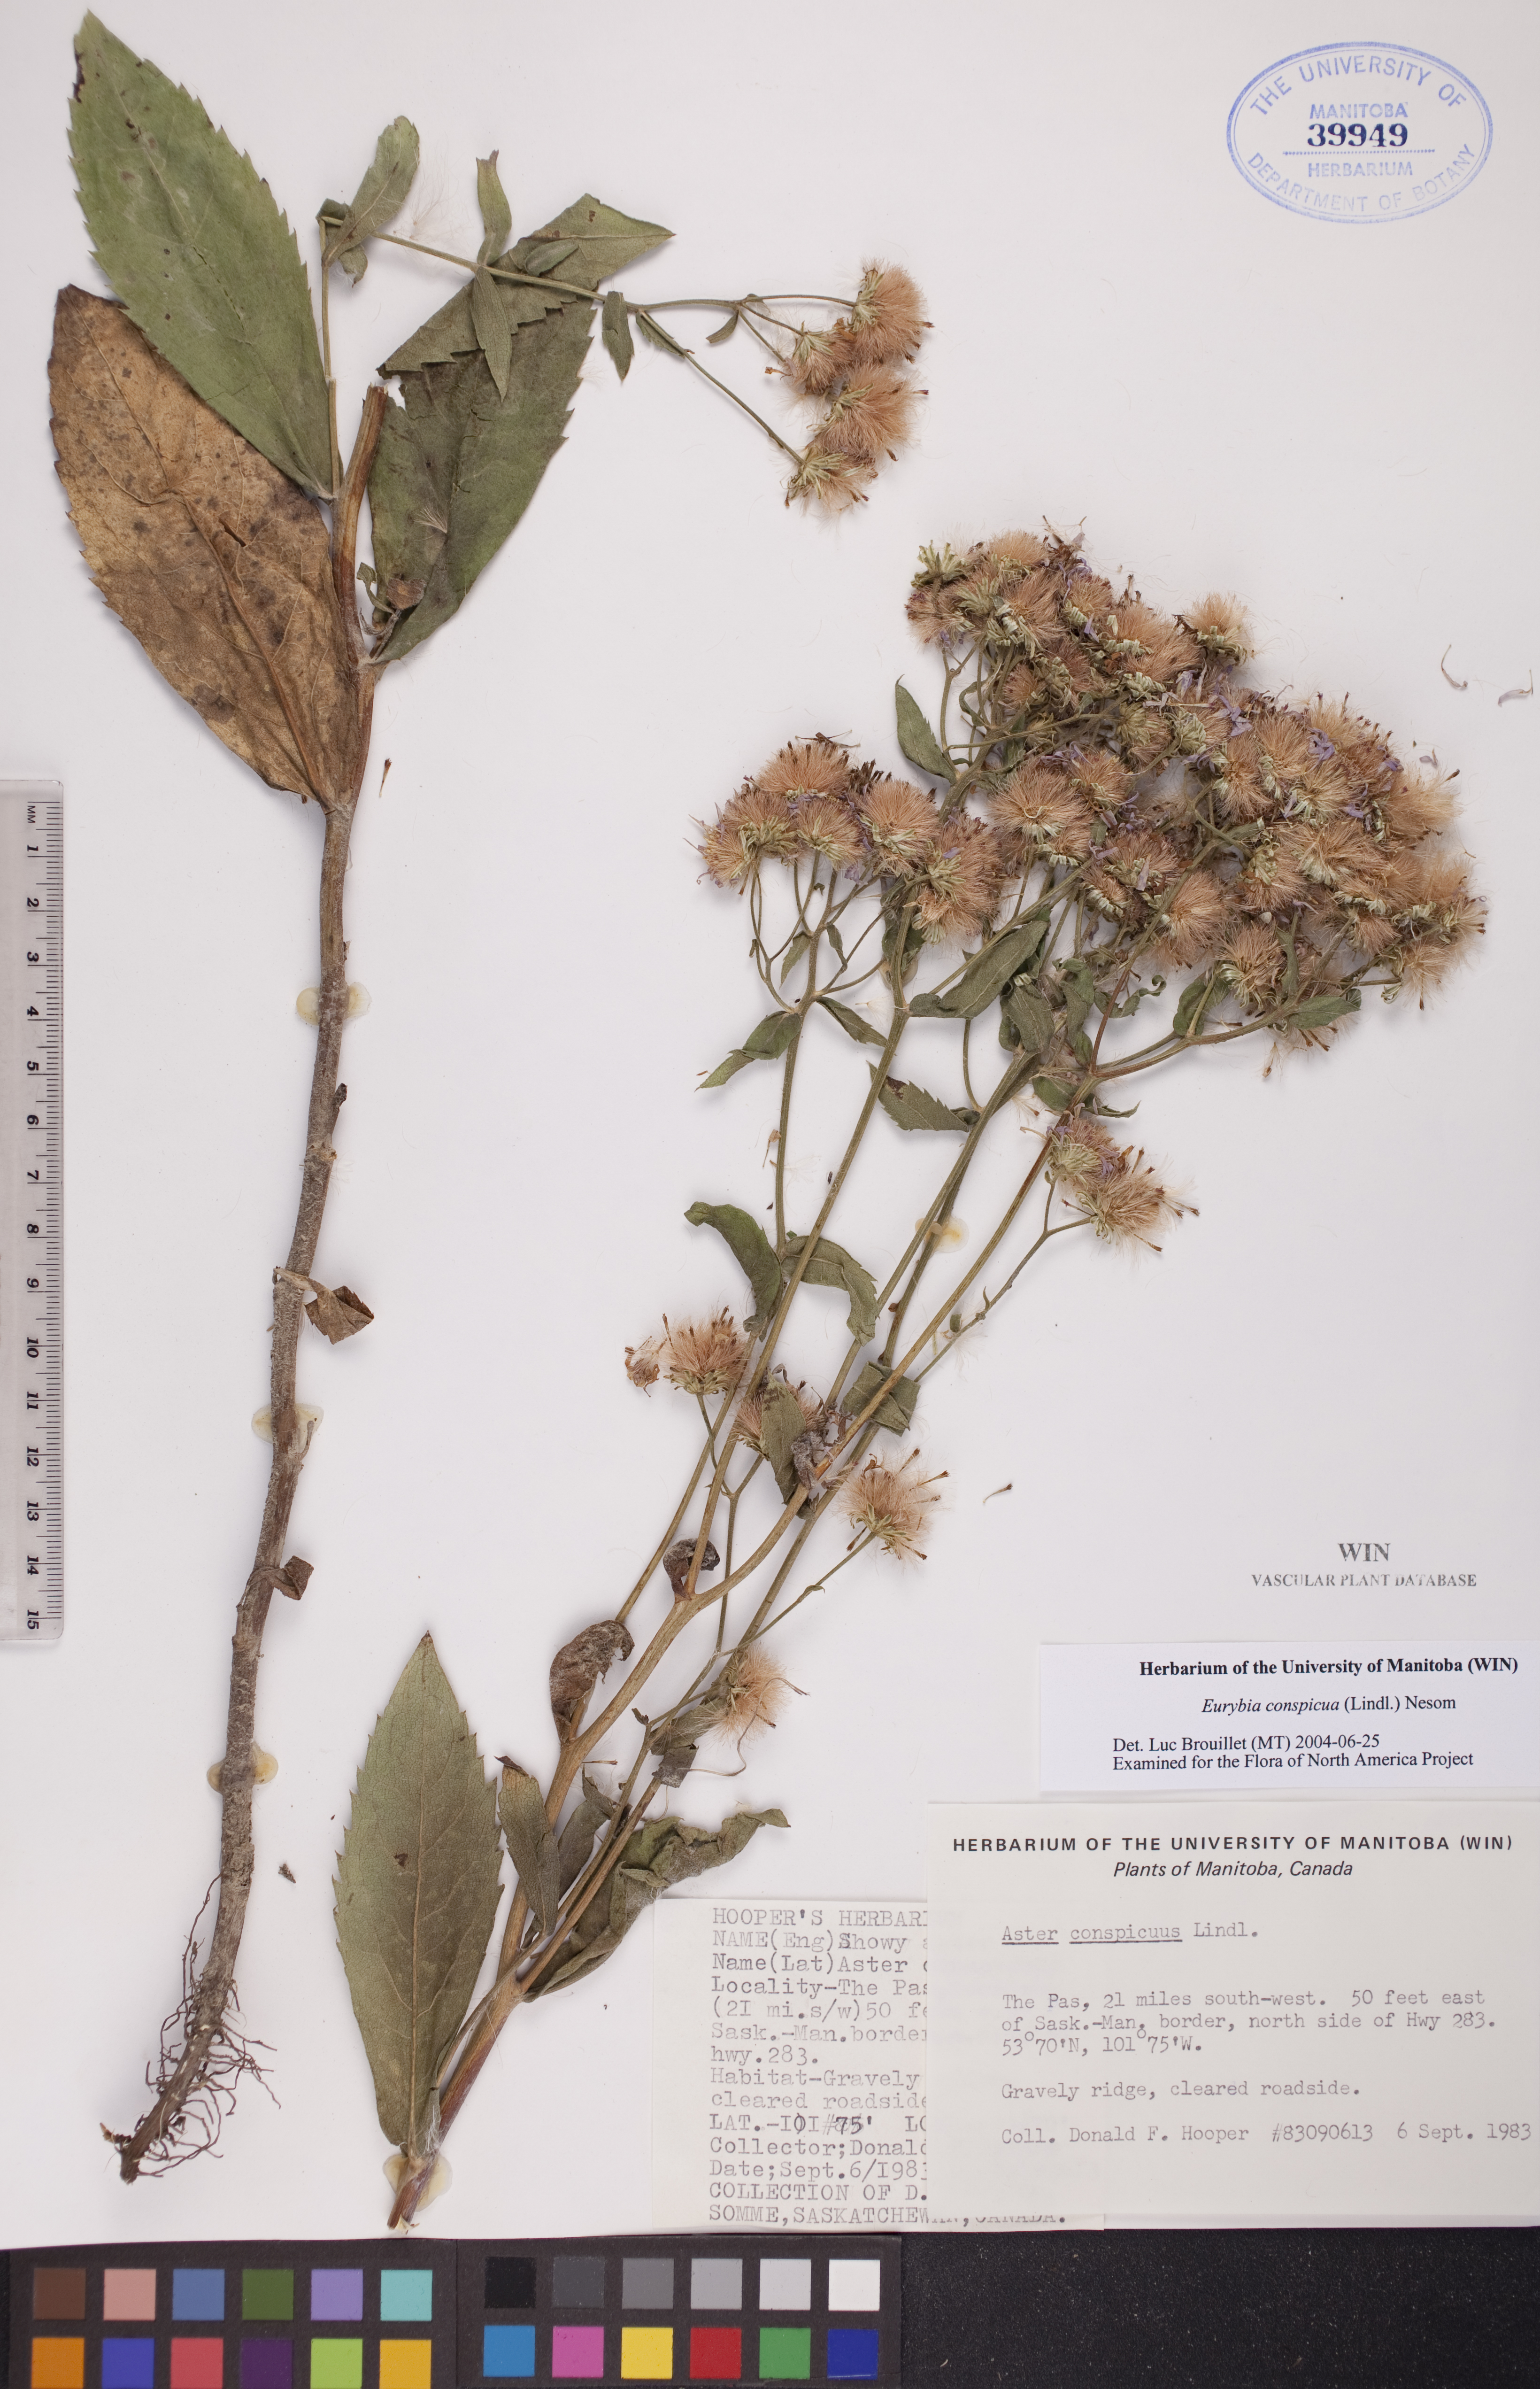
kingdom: Plantae
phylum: Tracheophyta
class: Magnoliopsida
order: Asterales
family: Asteraceae
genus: Eurybia
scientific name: Eurybia conspicua
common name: Showy aster
